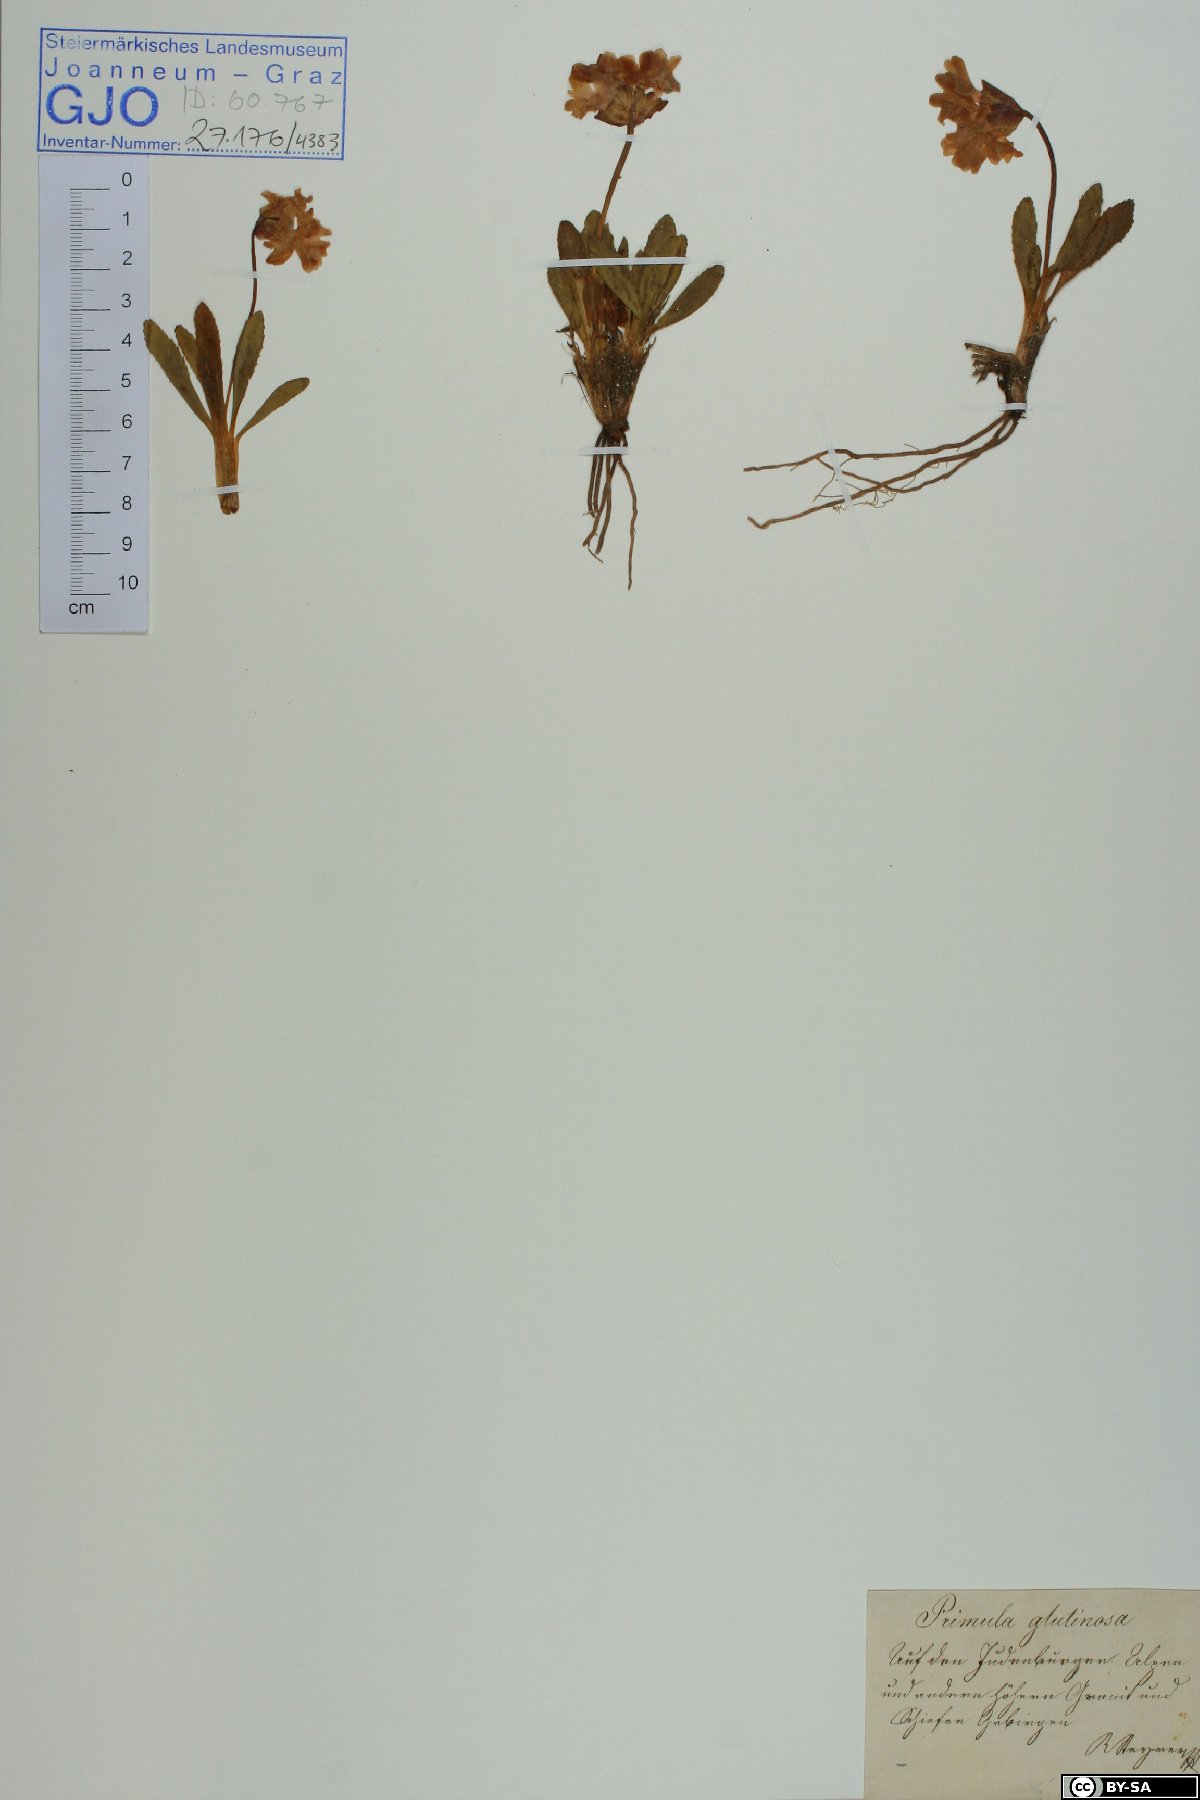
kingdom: Plantae
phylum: Tracheophyta
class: Magnoliopsida
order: Ericales
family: Primulaceae
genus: Primula
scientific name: Primula glutinosa
